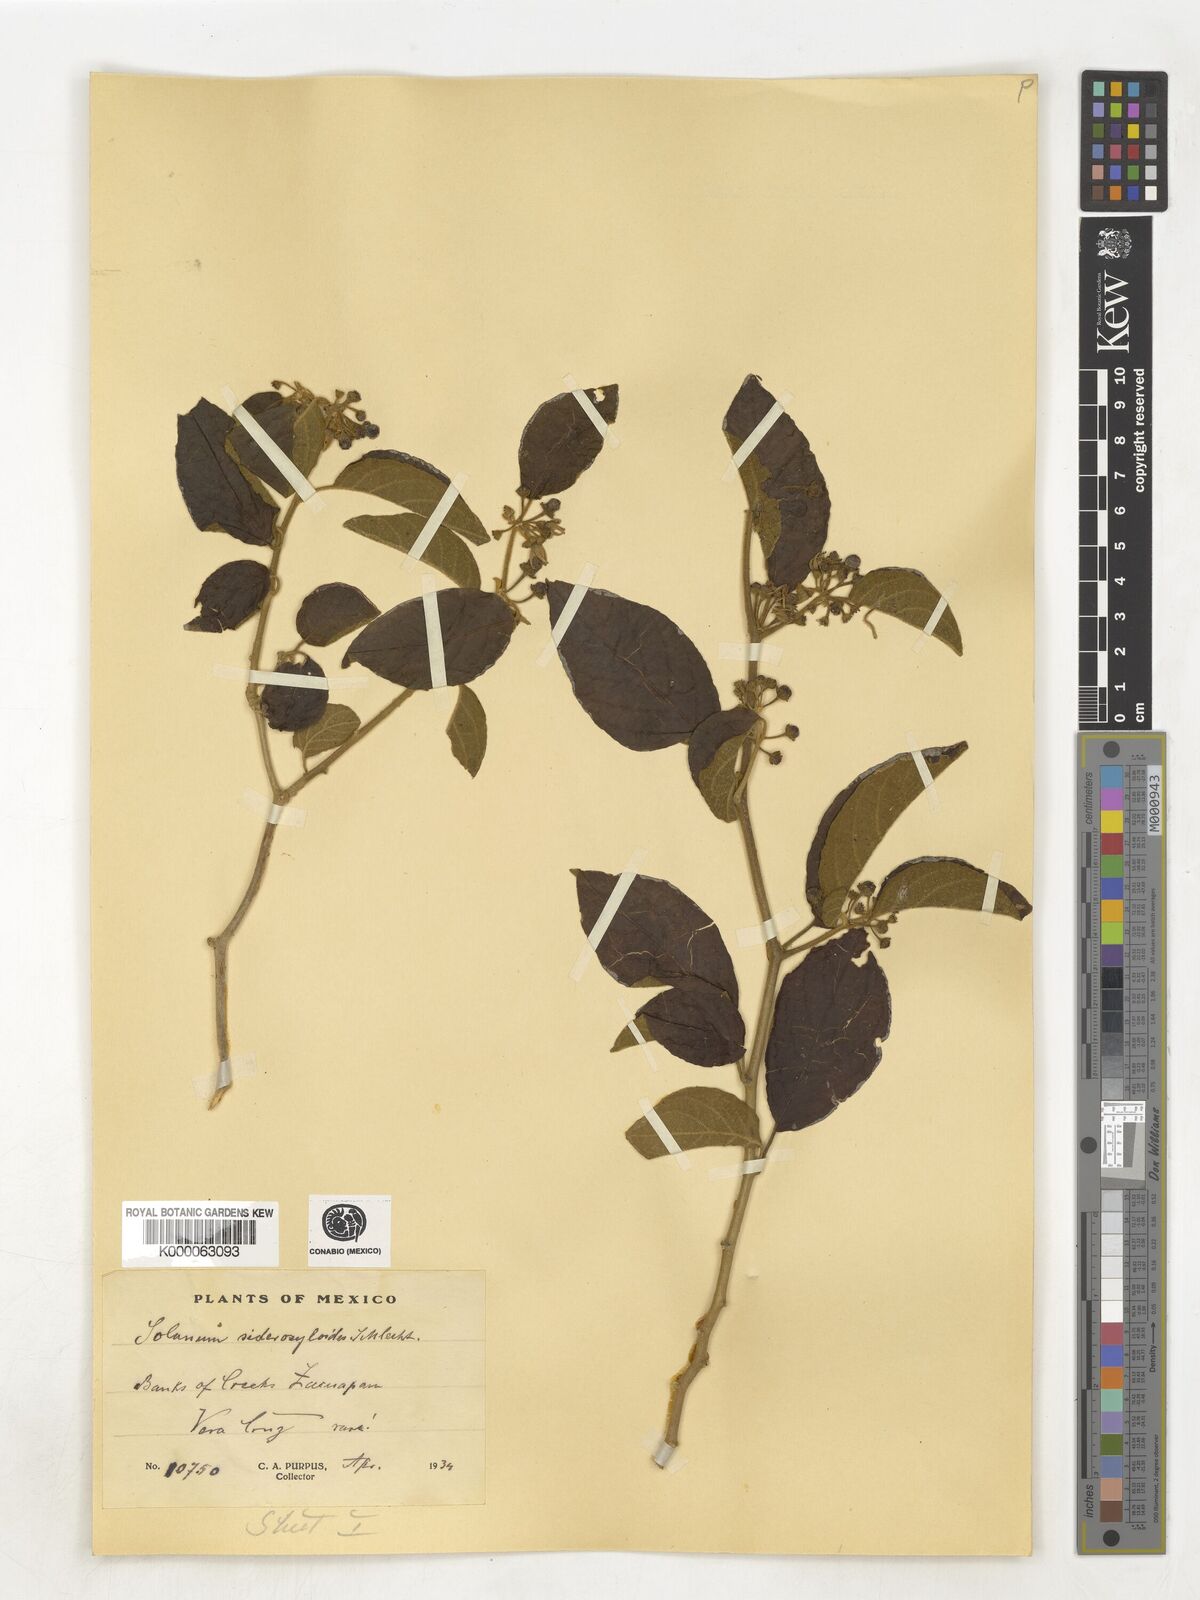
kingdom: Plantae
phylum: Tracheophyta
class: Magnoliopsida
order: Solanales
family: Solanaceae
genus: Lycianthes
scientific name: Lycianthes sideroxyloides
